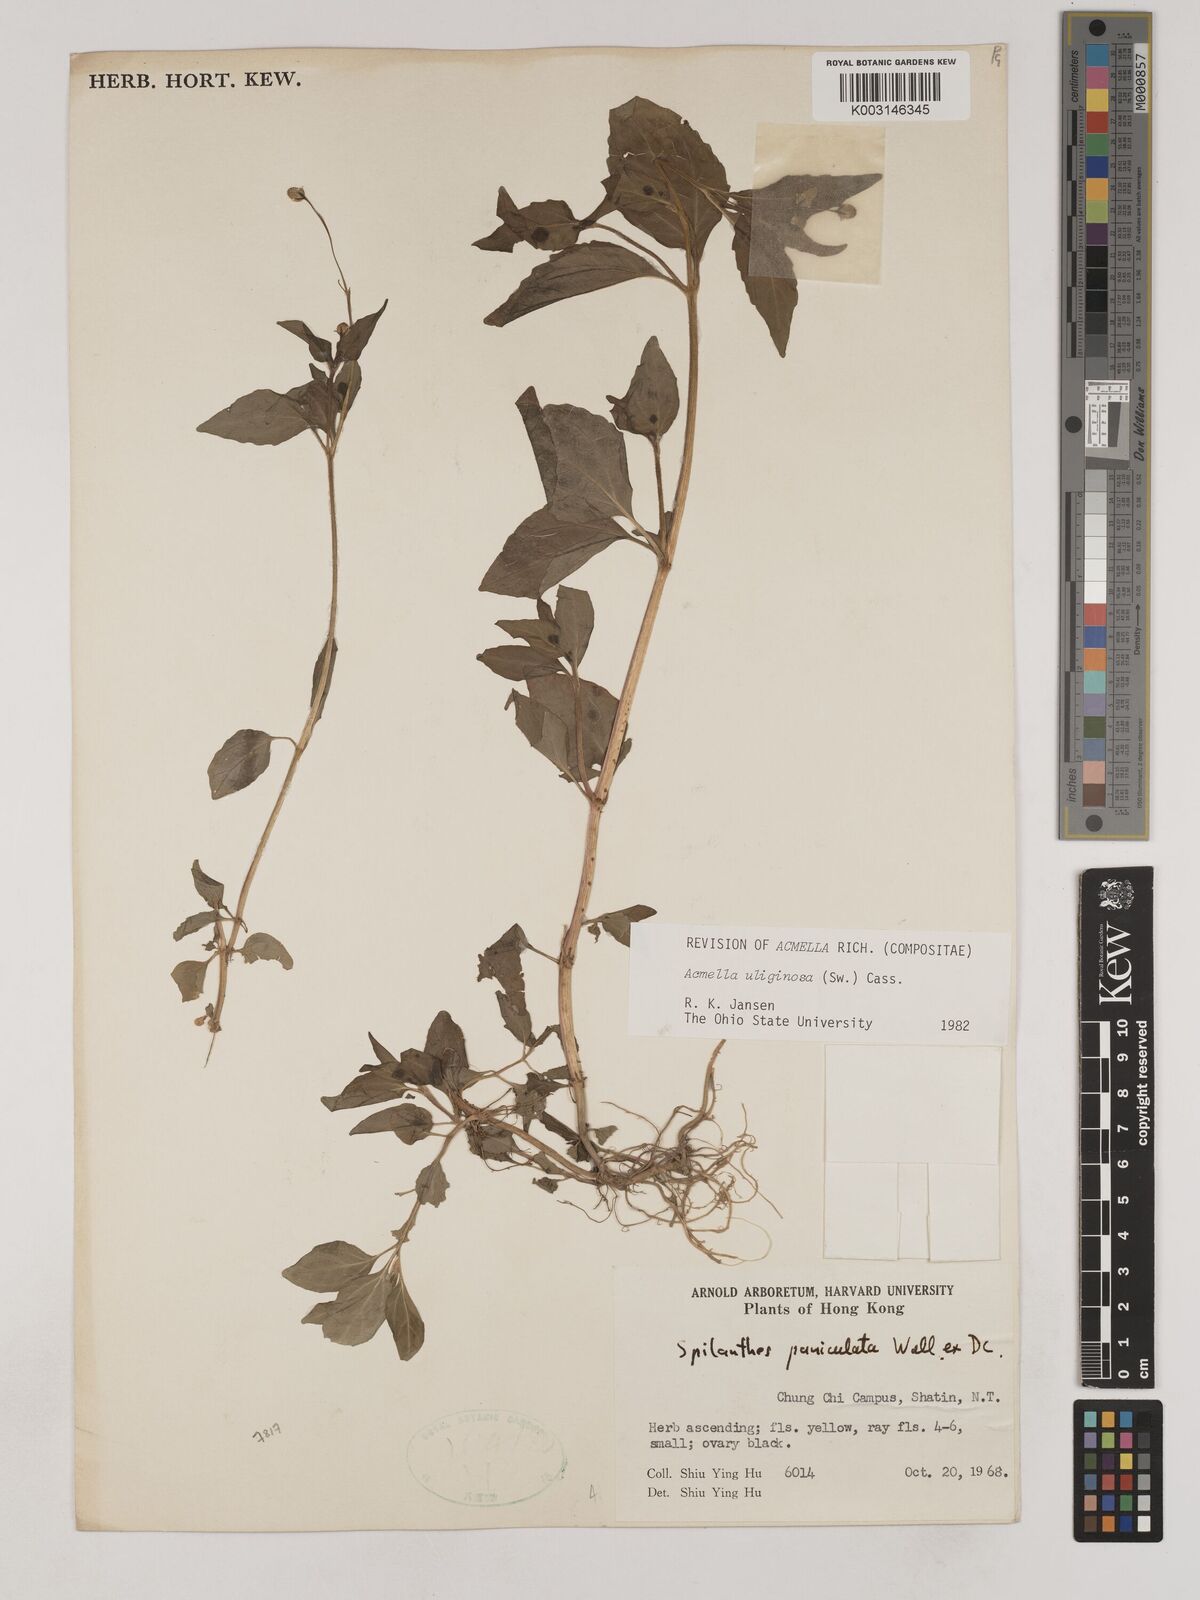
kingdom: Plantae
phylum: Tracheophyta
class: Magnoliopsida
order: Asterales
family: Asteraceae
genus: Acmella
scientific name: Acmella uliginosa
